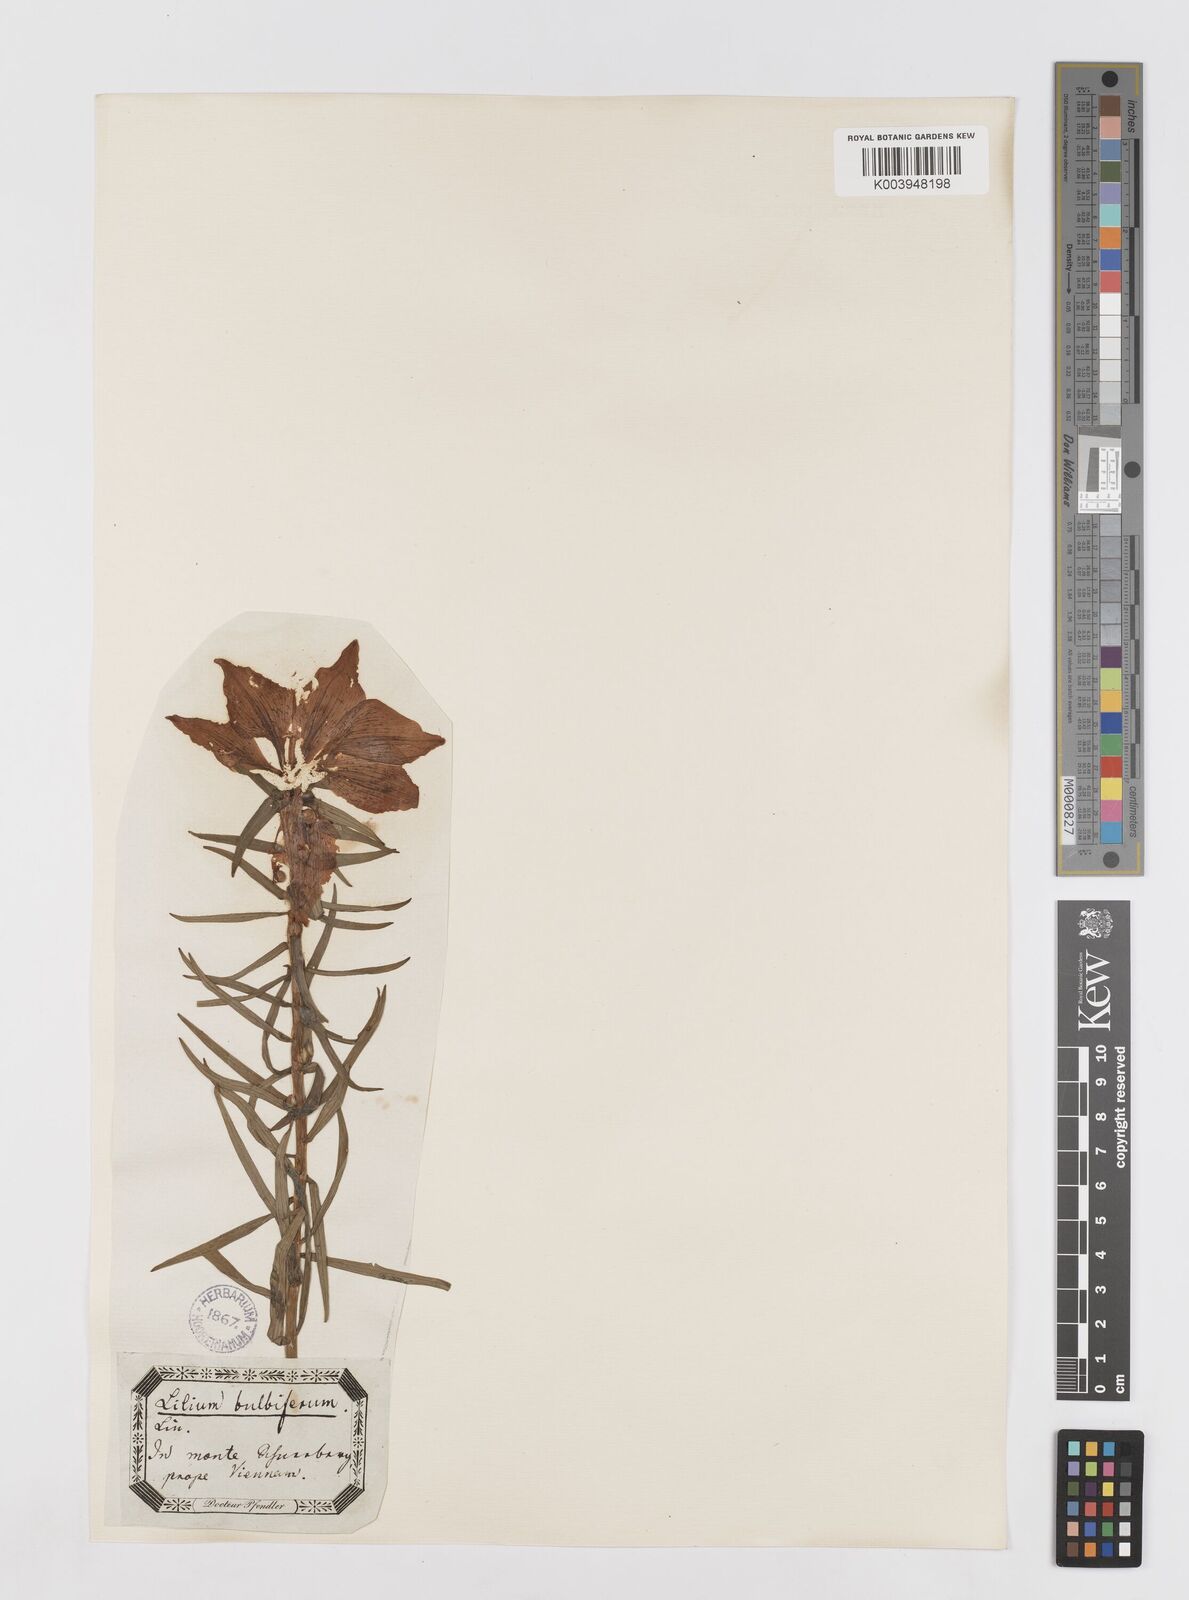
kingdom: Plantae
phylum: Tracheophyta
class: Liliopsida
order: Liliales
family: Liliaceae
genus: Lilium
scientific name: Lilium bulbiferum
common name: Orange lily
